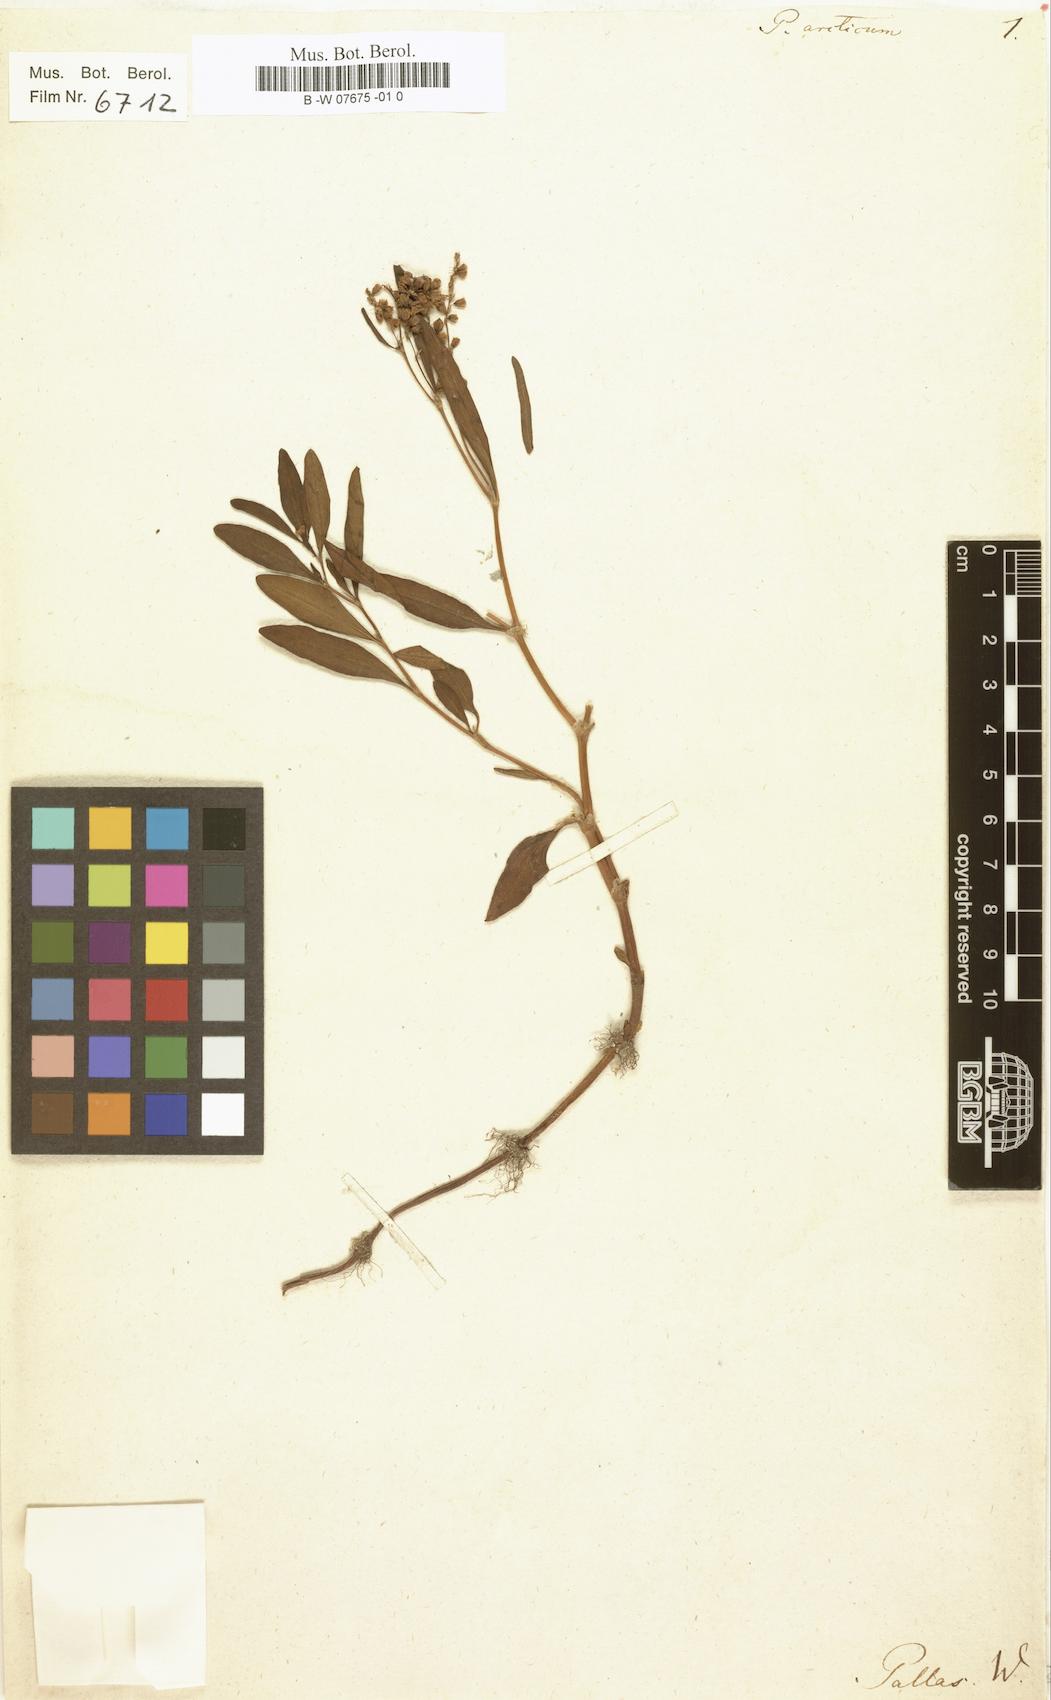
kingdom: Plantae
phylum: Tracheophyta
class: Magnoliopsida
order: Caryophyllales
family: Polygonaceae
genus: Knorringia
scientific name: Knorringia sibirica
